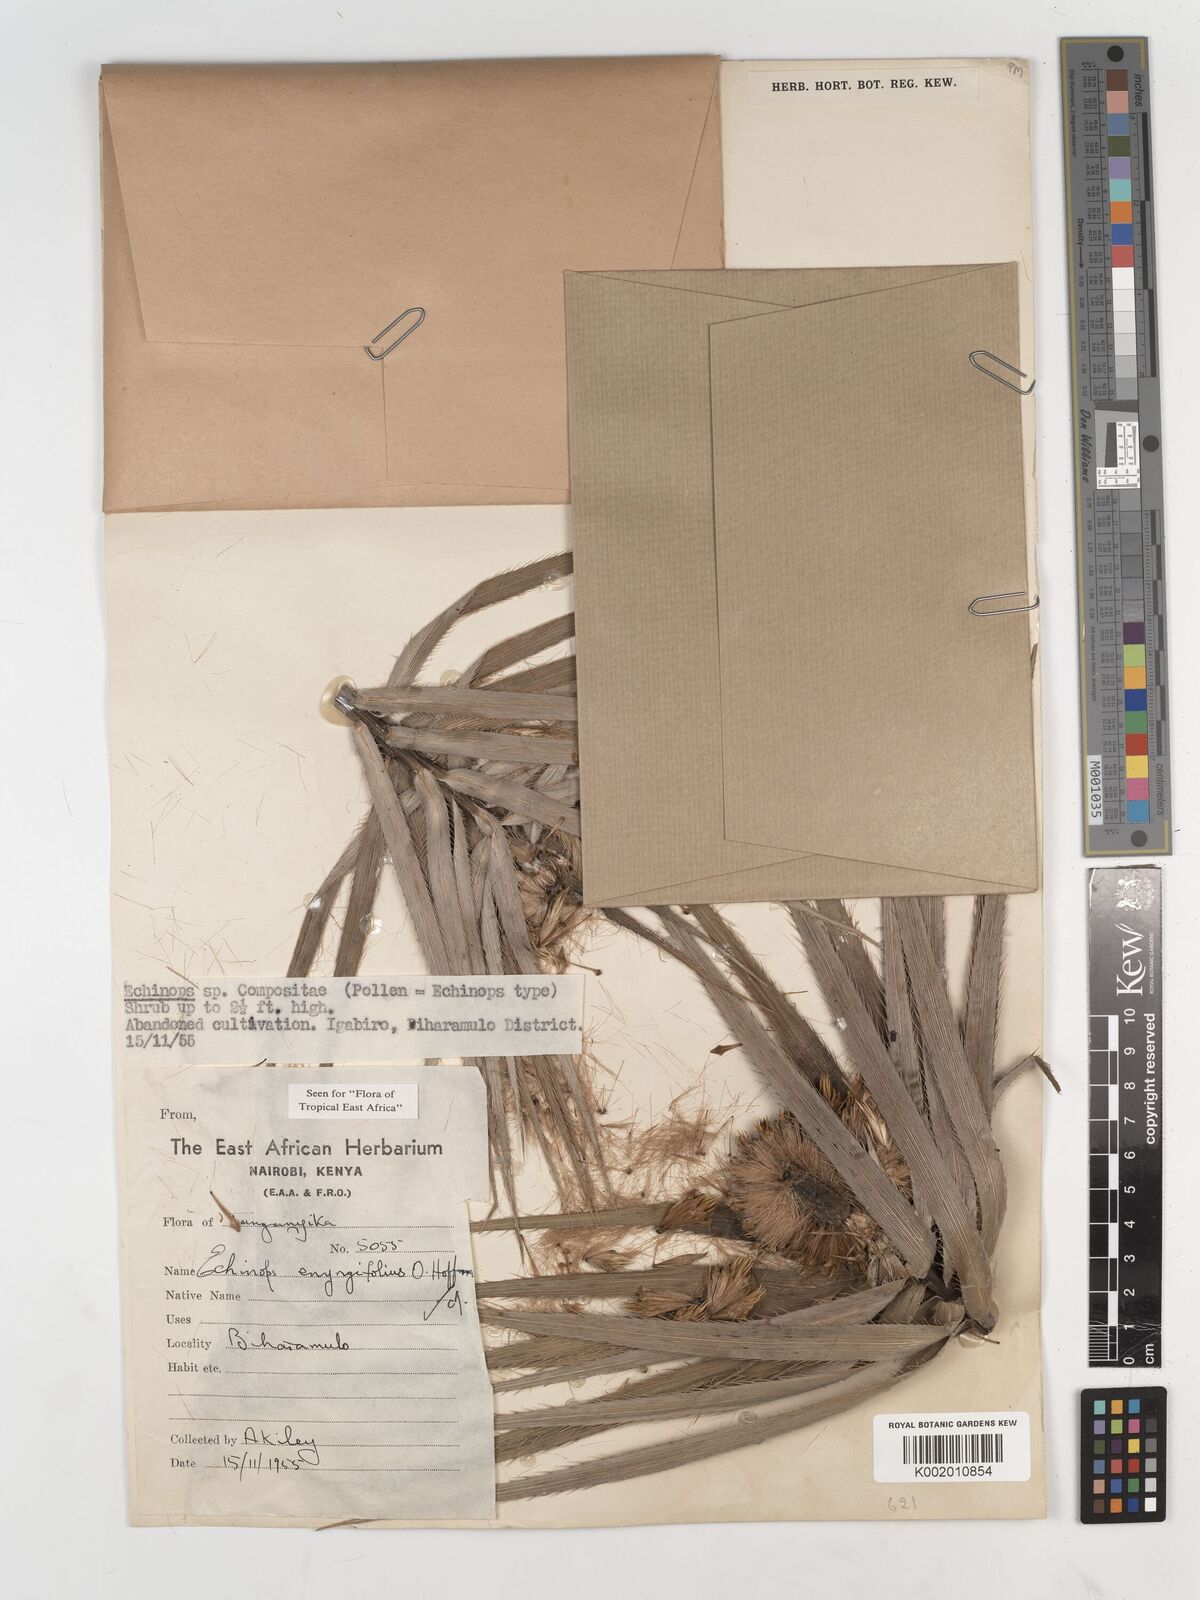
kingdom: Plantae
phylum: Tracheophyta
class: Magnoliopsida
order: Asterales
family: Asteraceae
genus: Echinops
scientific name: Echinops eryngiifolius
